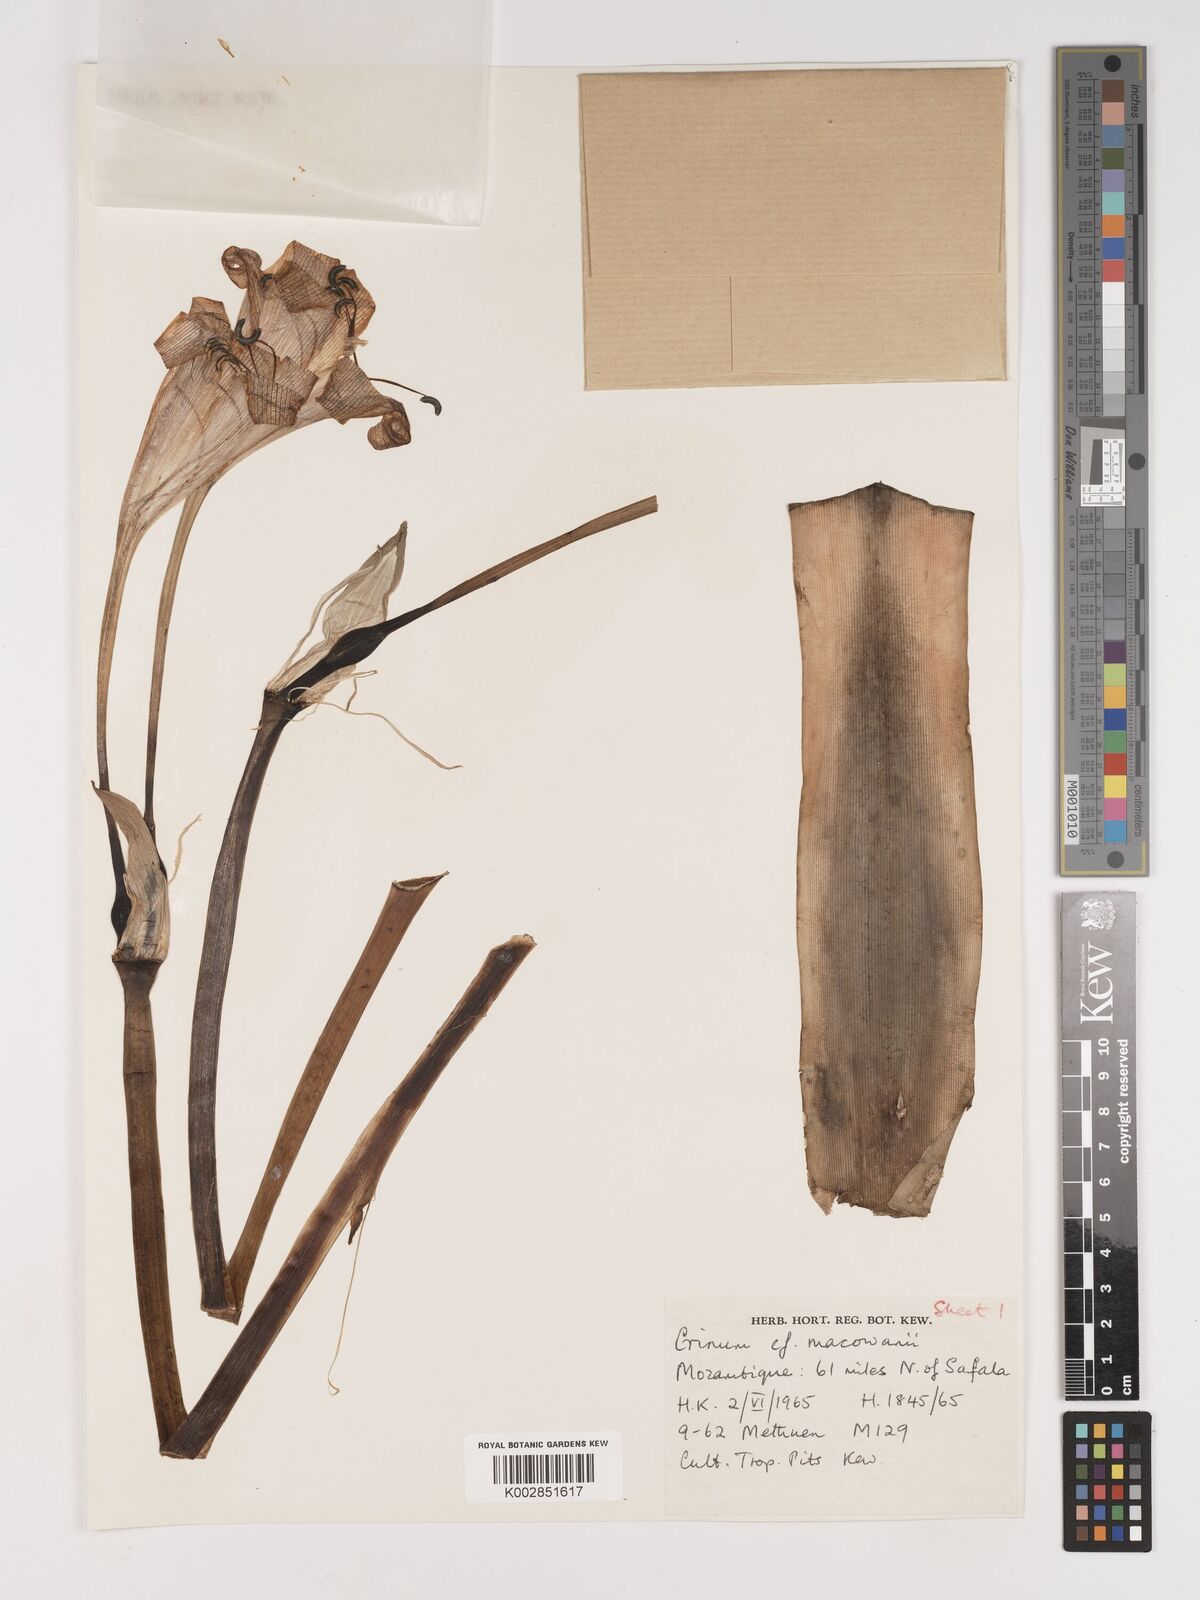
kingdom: Plantae
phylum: Tracheophyta
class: Liliopsida
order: Asparagales
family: Amaryllidaceae
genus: Crinum
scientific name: Crinum macowanii
